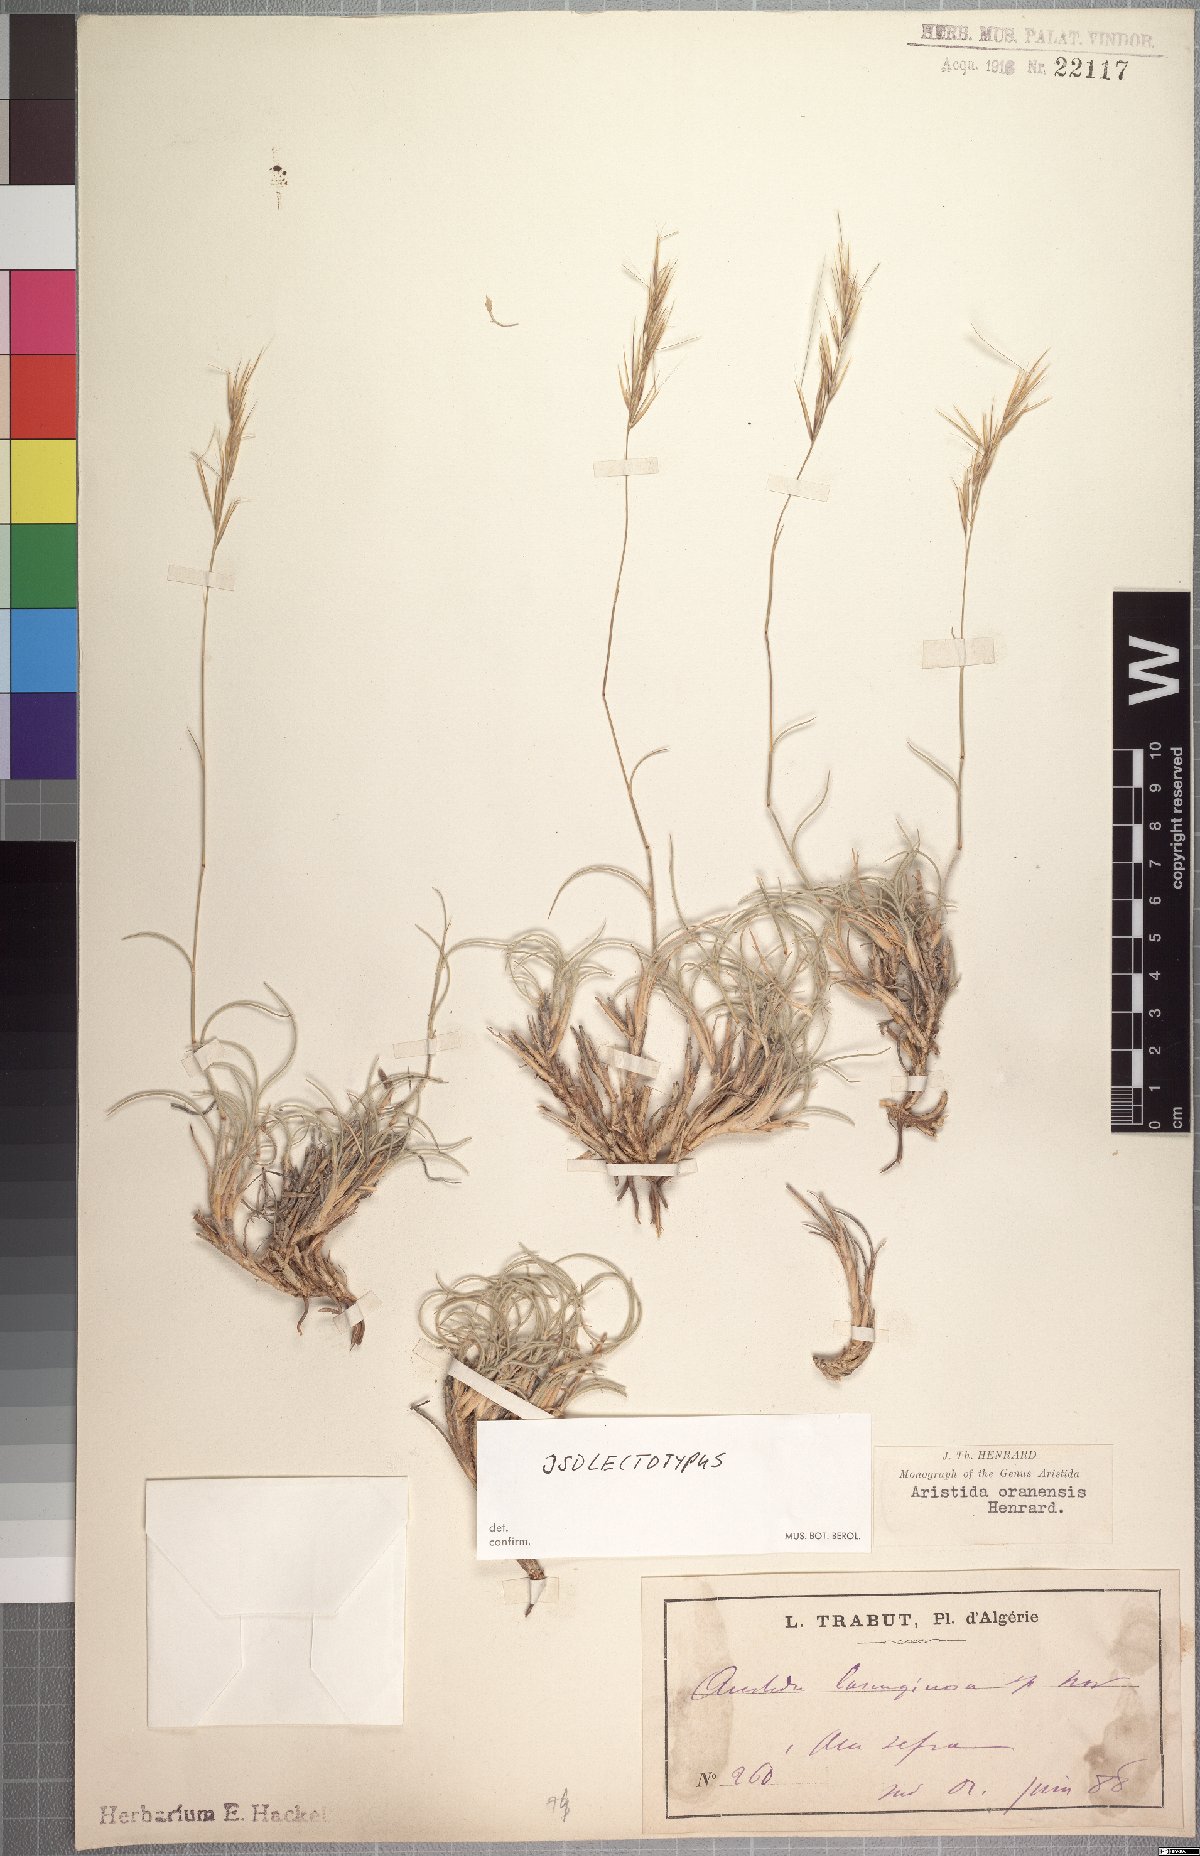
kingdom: Plantae
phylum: Tracheophyta
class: Liliopsida
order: Poales
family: Poaceae
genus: Stipagrostis
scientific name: Stipagrostis plumosa
